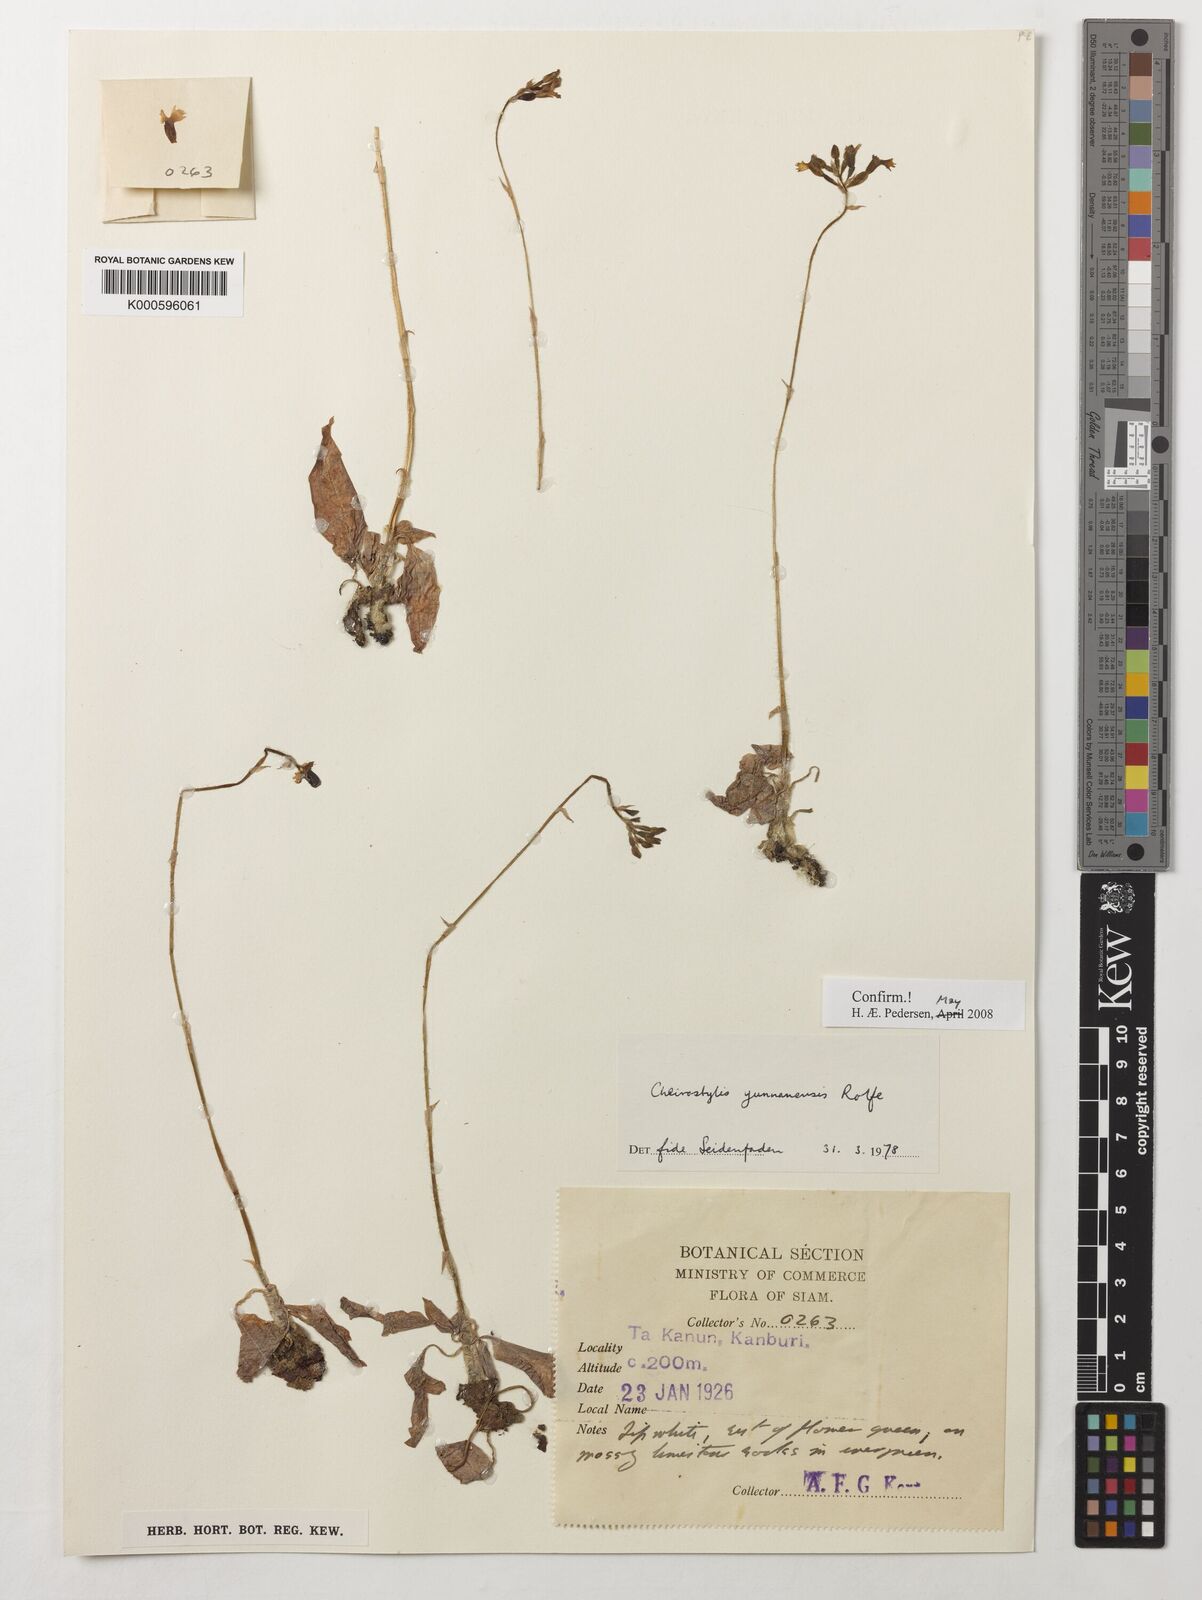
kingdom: Plantae
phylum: Tracheophyta
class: Liliopsida
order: Asparagales
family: Orchidaceae
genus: Cheirostylis
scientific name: Cheirostylis
